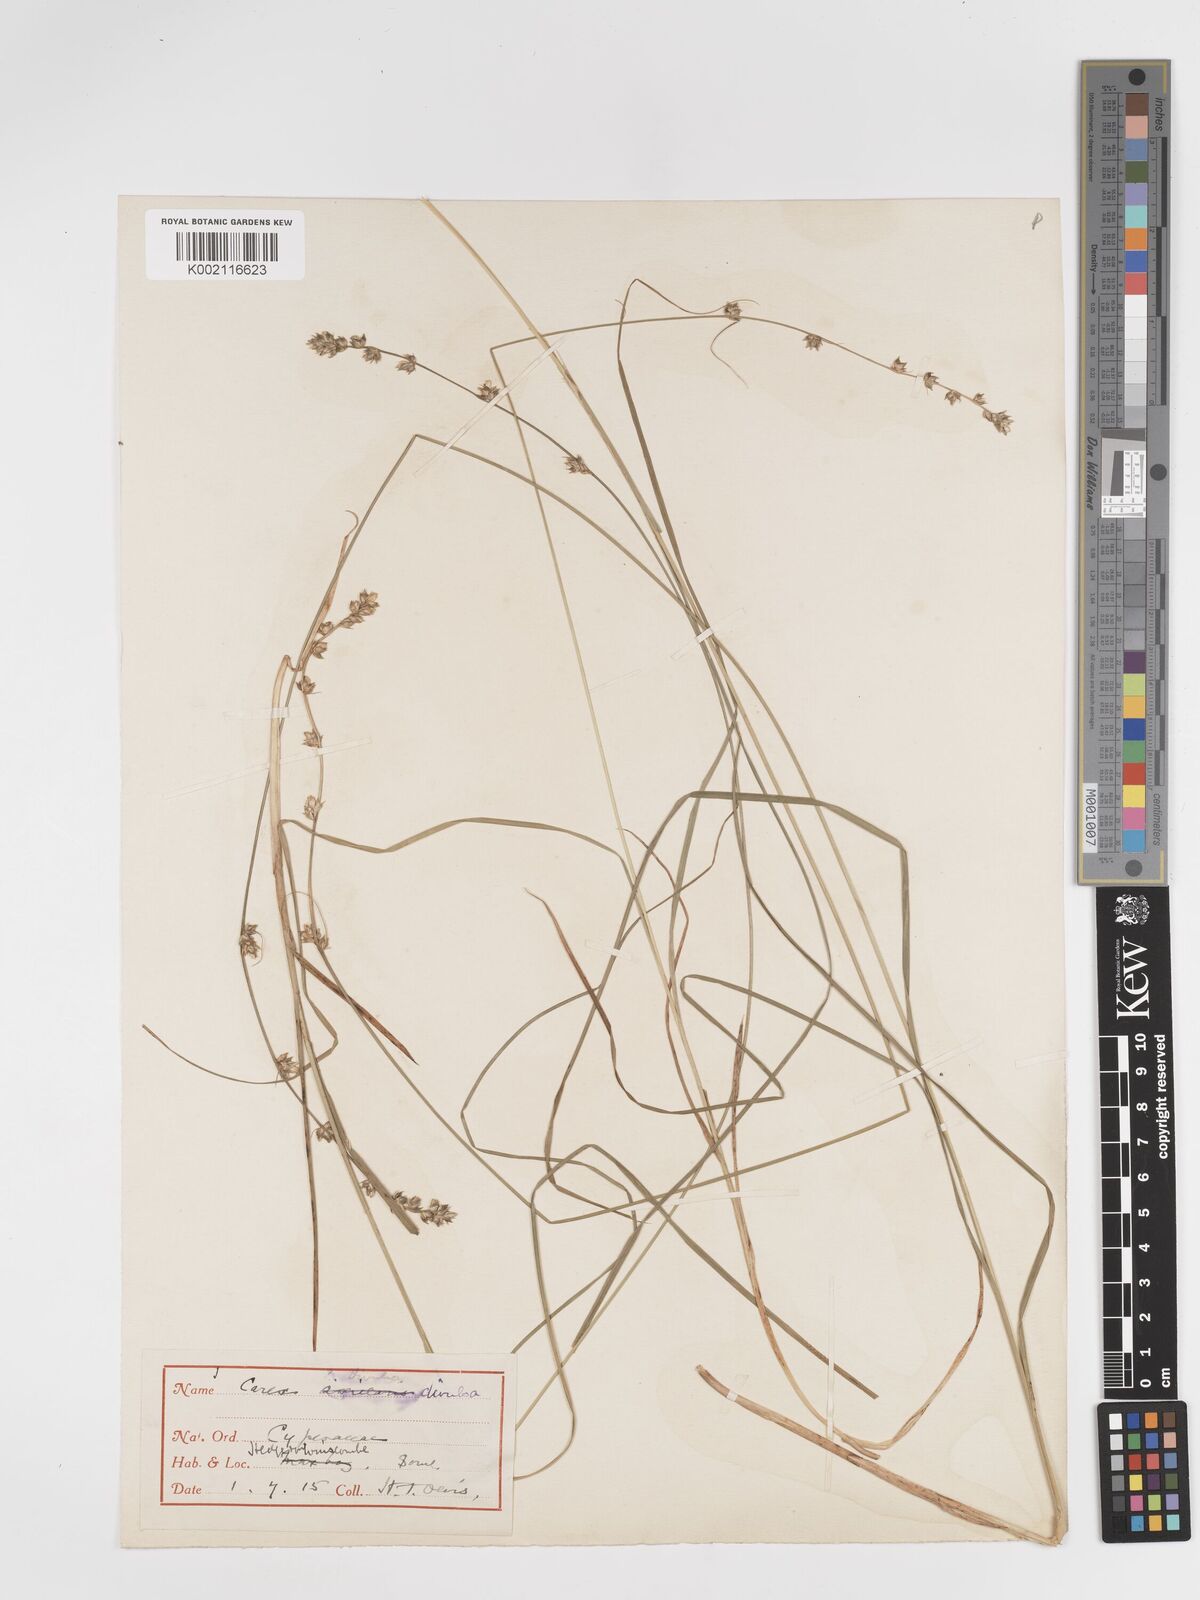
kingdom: Plantae
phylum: Tracheophyta
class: Liliopsida
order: Poales
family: Cyperaceae
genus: Carex
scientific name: Carex divulsa
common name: Grassland sedge
